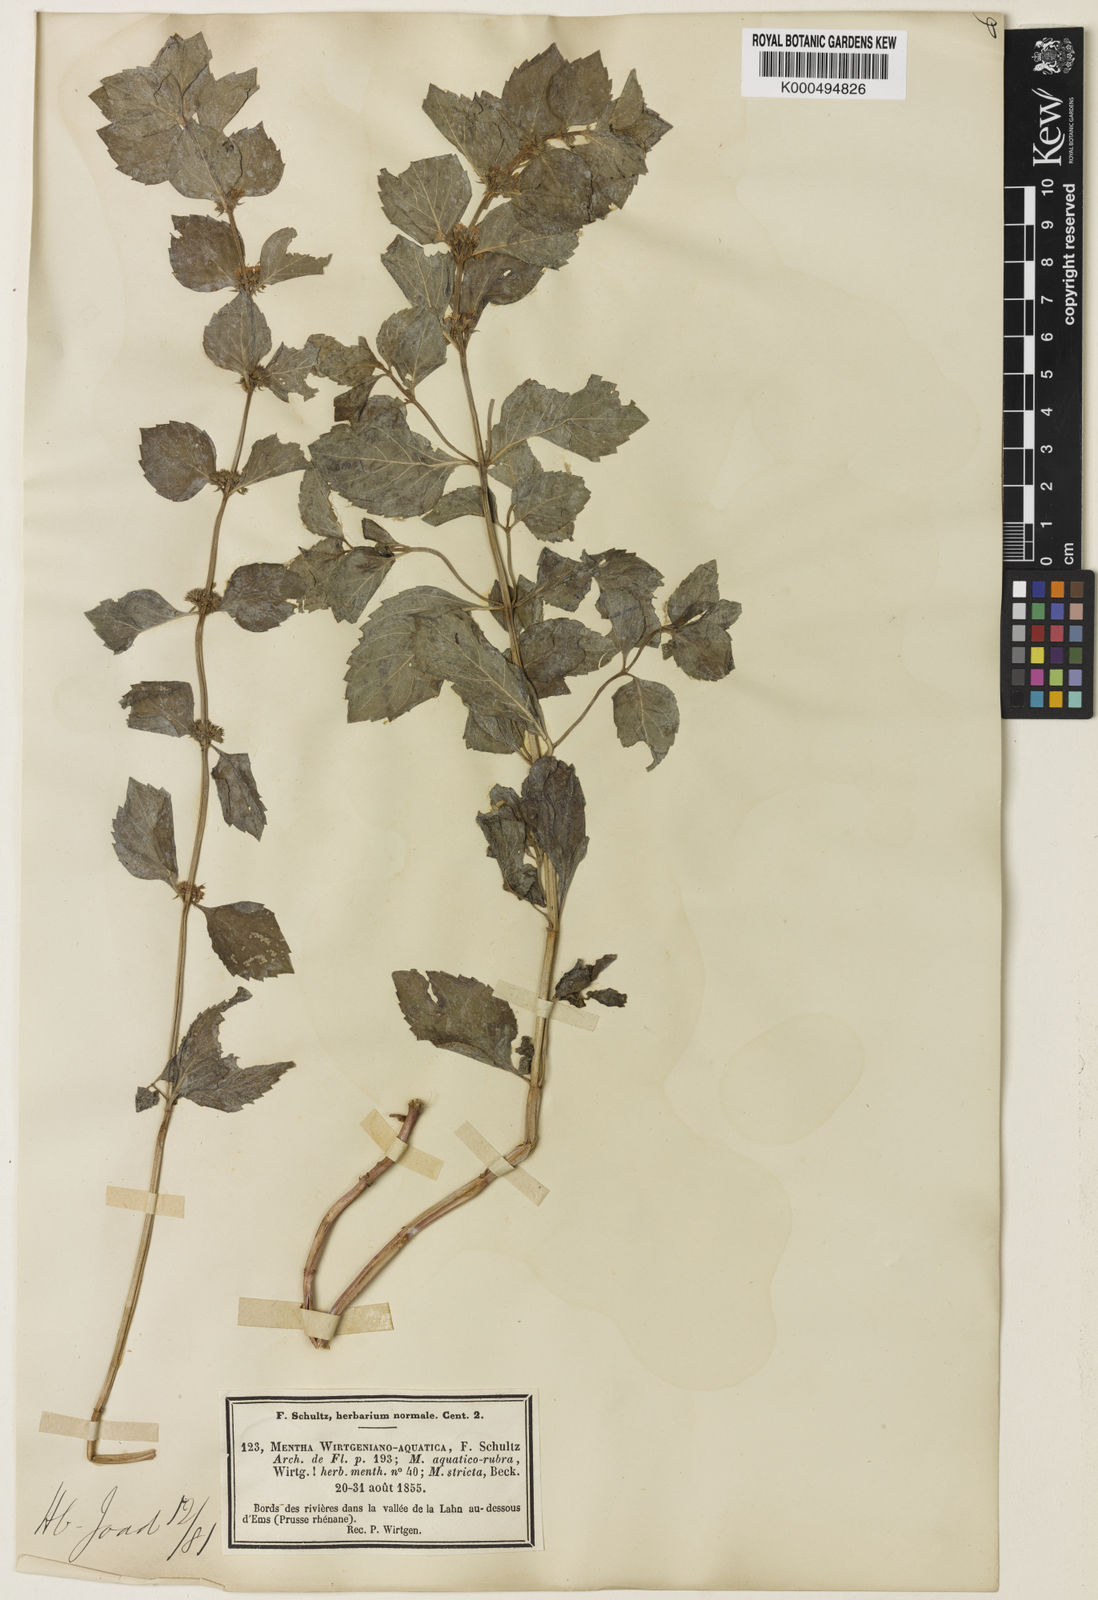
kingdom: Plantae
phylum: Tracheophyta
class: Magnoliopsida
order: Lamiales
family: Lamiaceae
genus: Mentha
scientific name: Mentha aquatica
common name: Water mint
